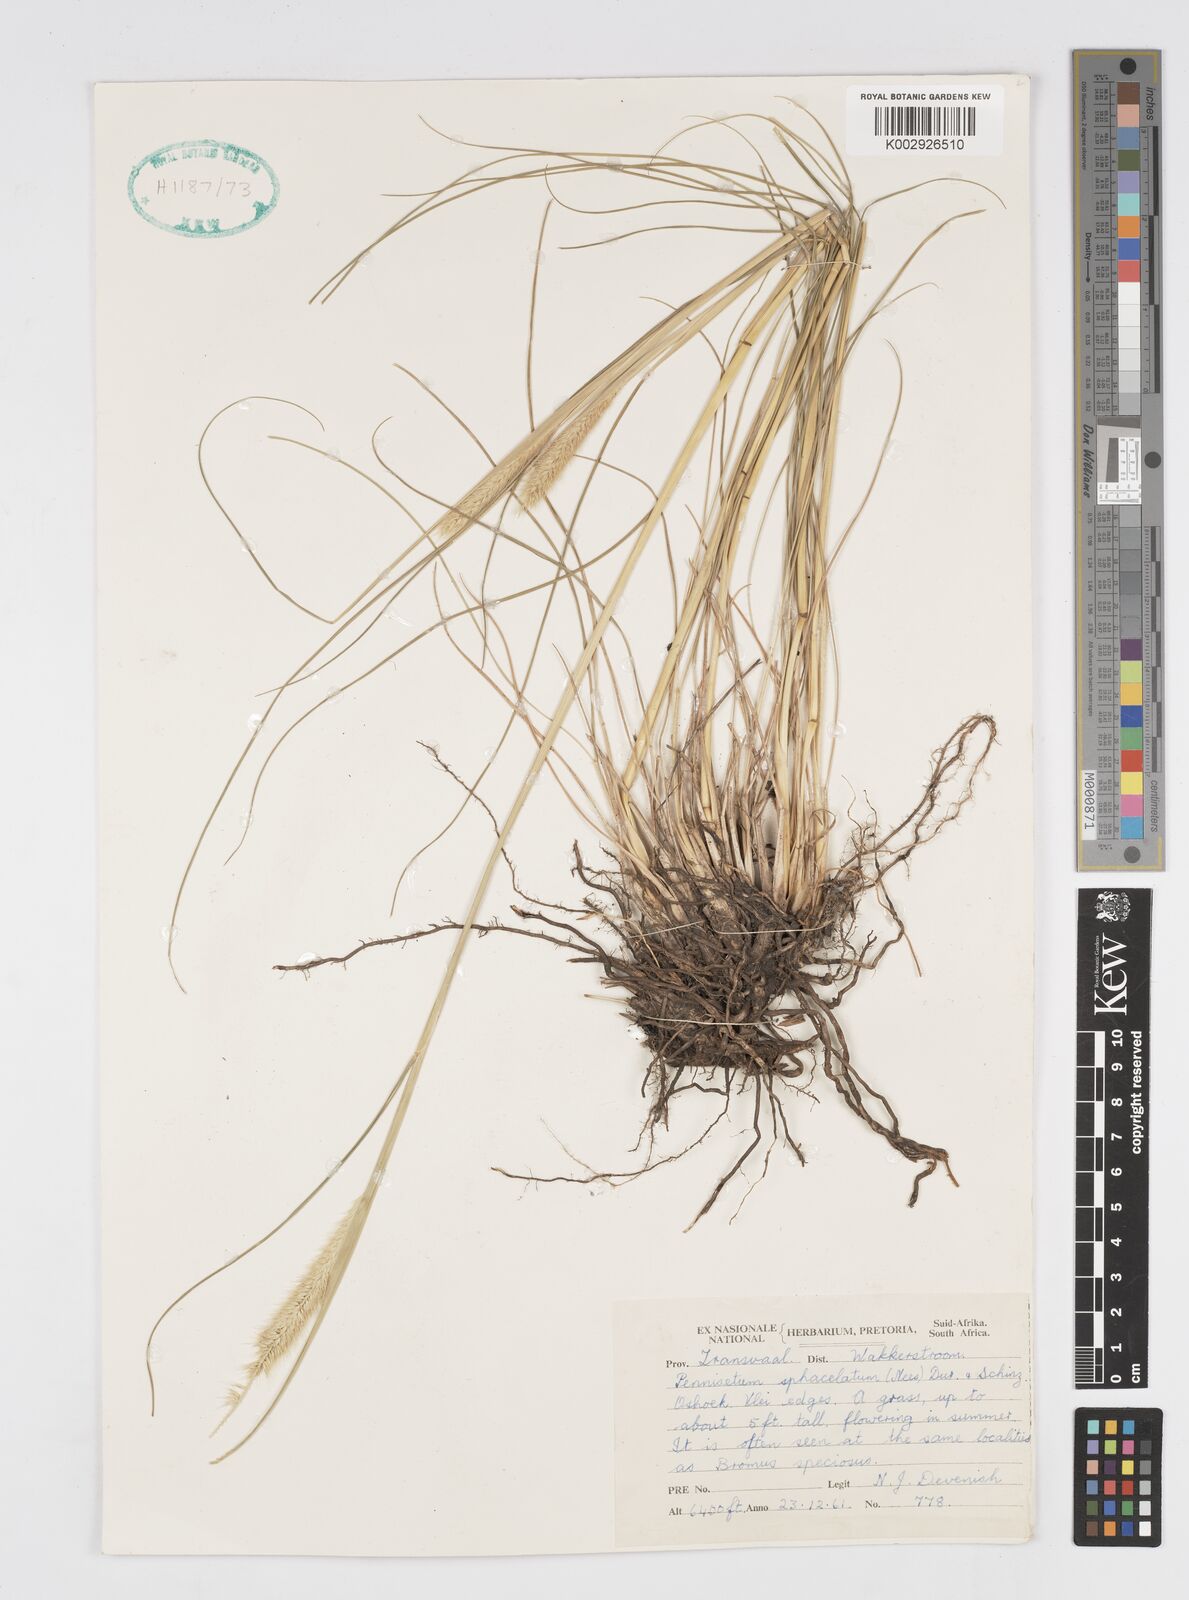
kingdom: Plantae
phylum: Tracheophyta
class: Liliopsida
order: Poales
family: Poaceae
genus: Cenchrus
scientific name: Cenchrus sphacelatus
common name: Bulgras
